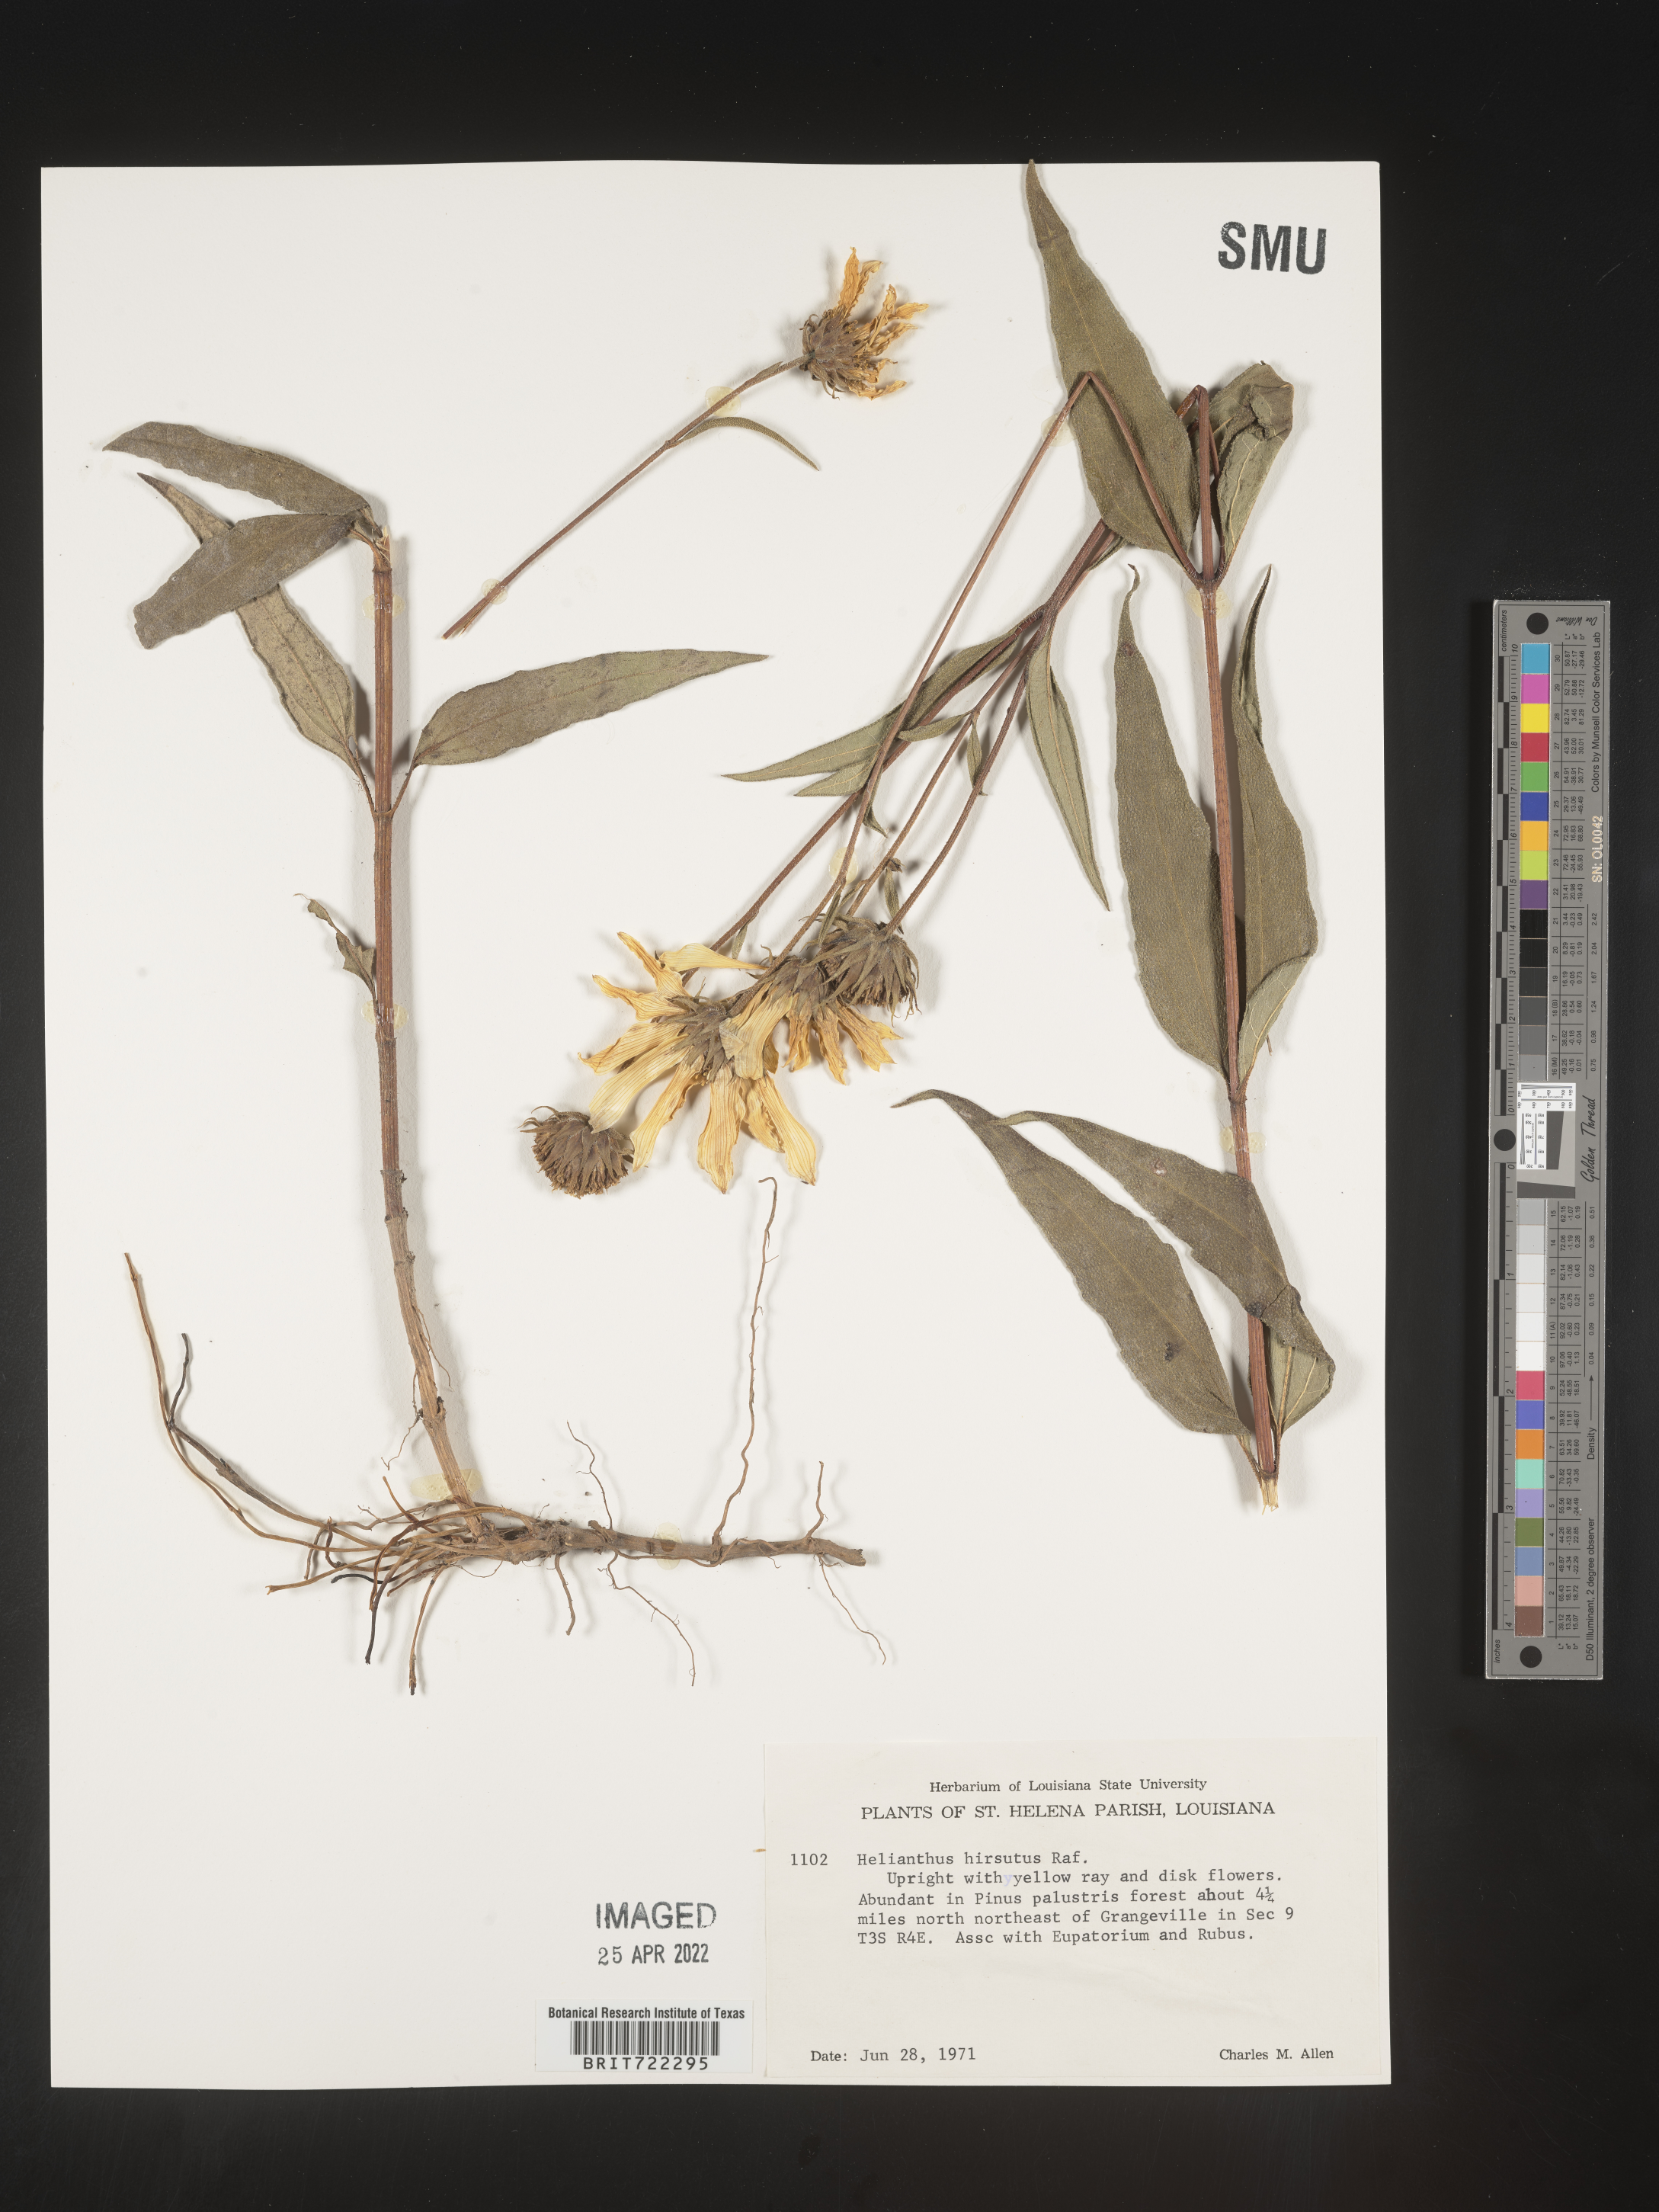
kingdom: Plantae
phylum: Tracheophyta
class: Magnoliopsida
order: Asterales
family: Asteraceae
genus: Helianthus
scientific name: Helianthus hirsutus
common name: Hairy sunflower
